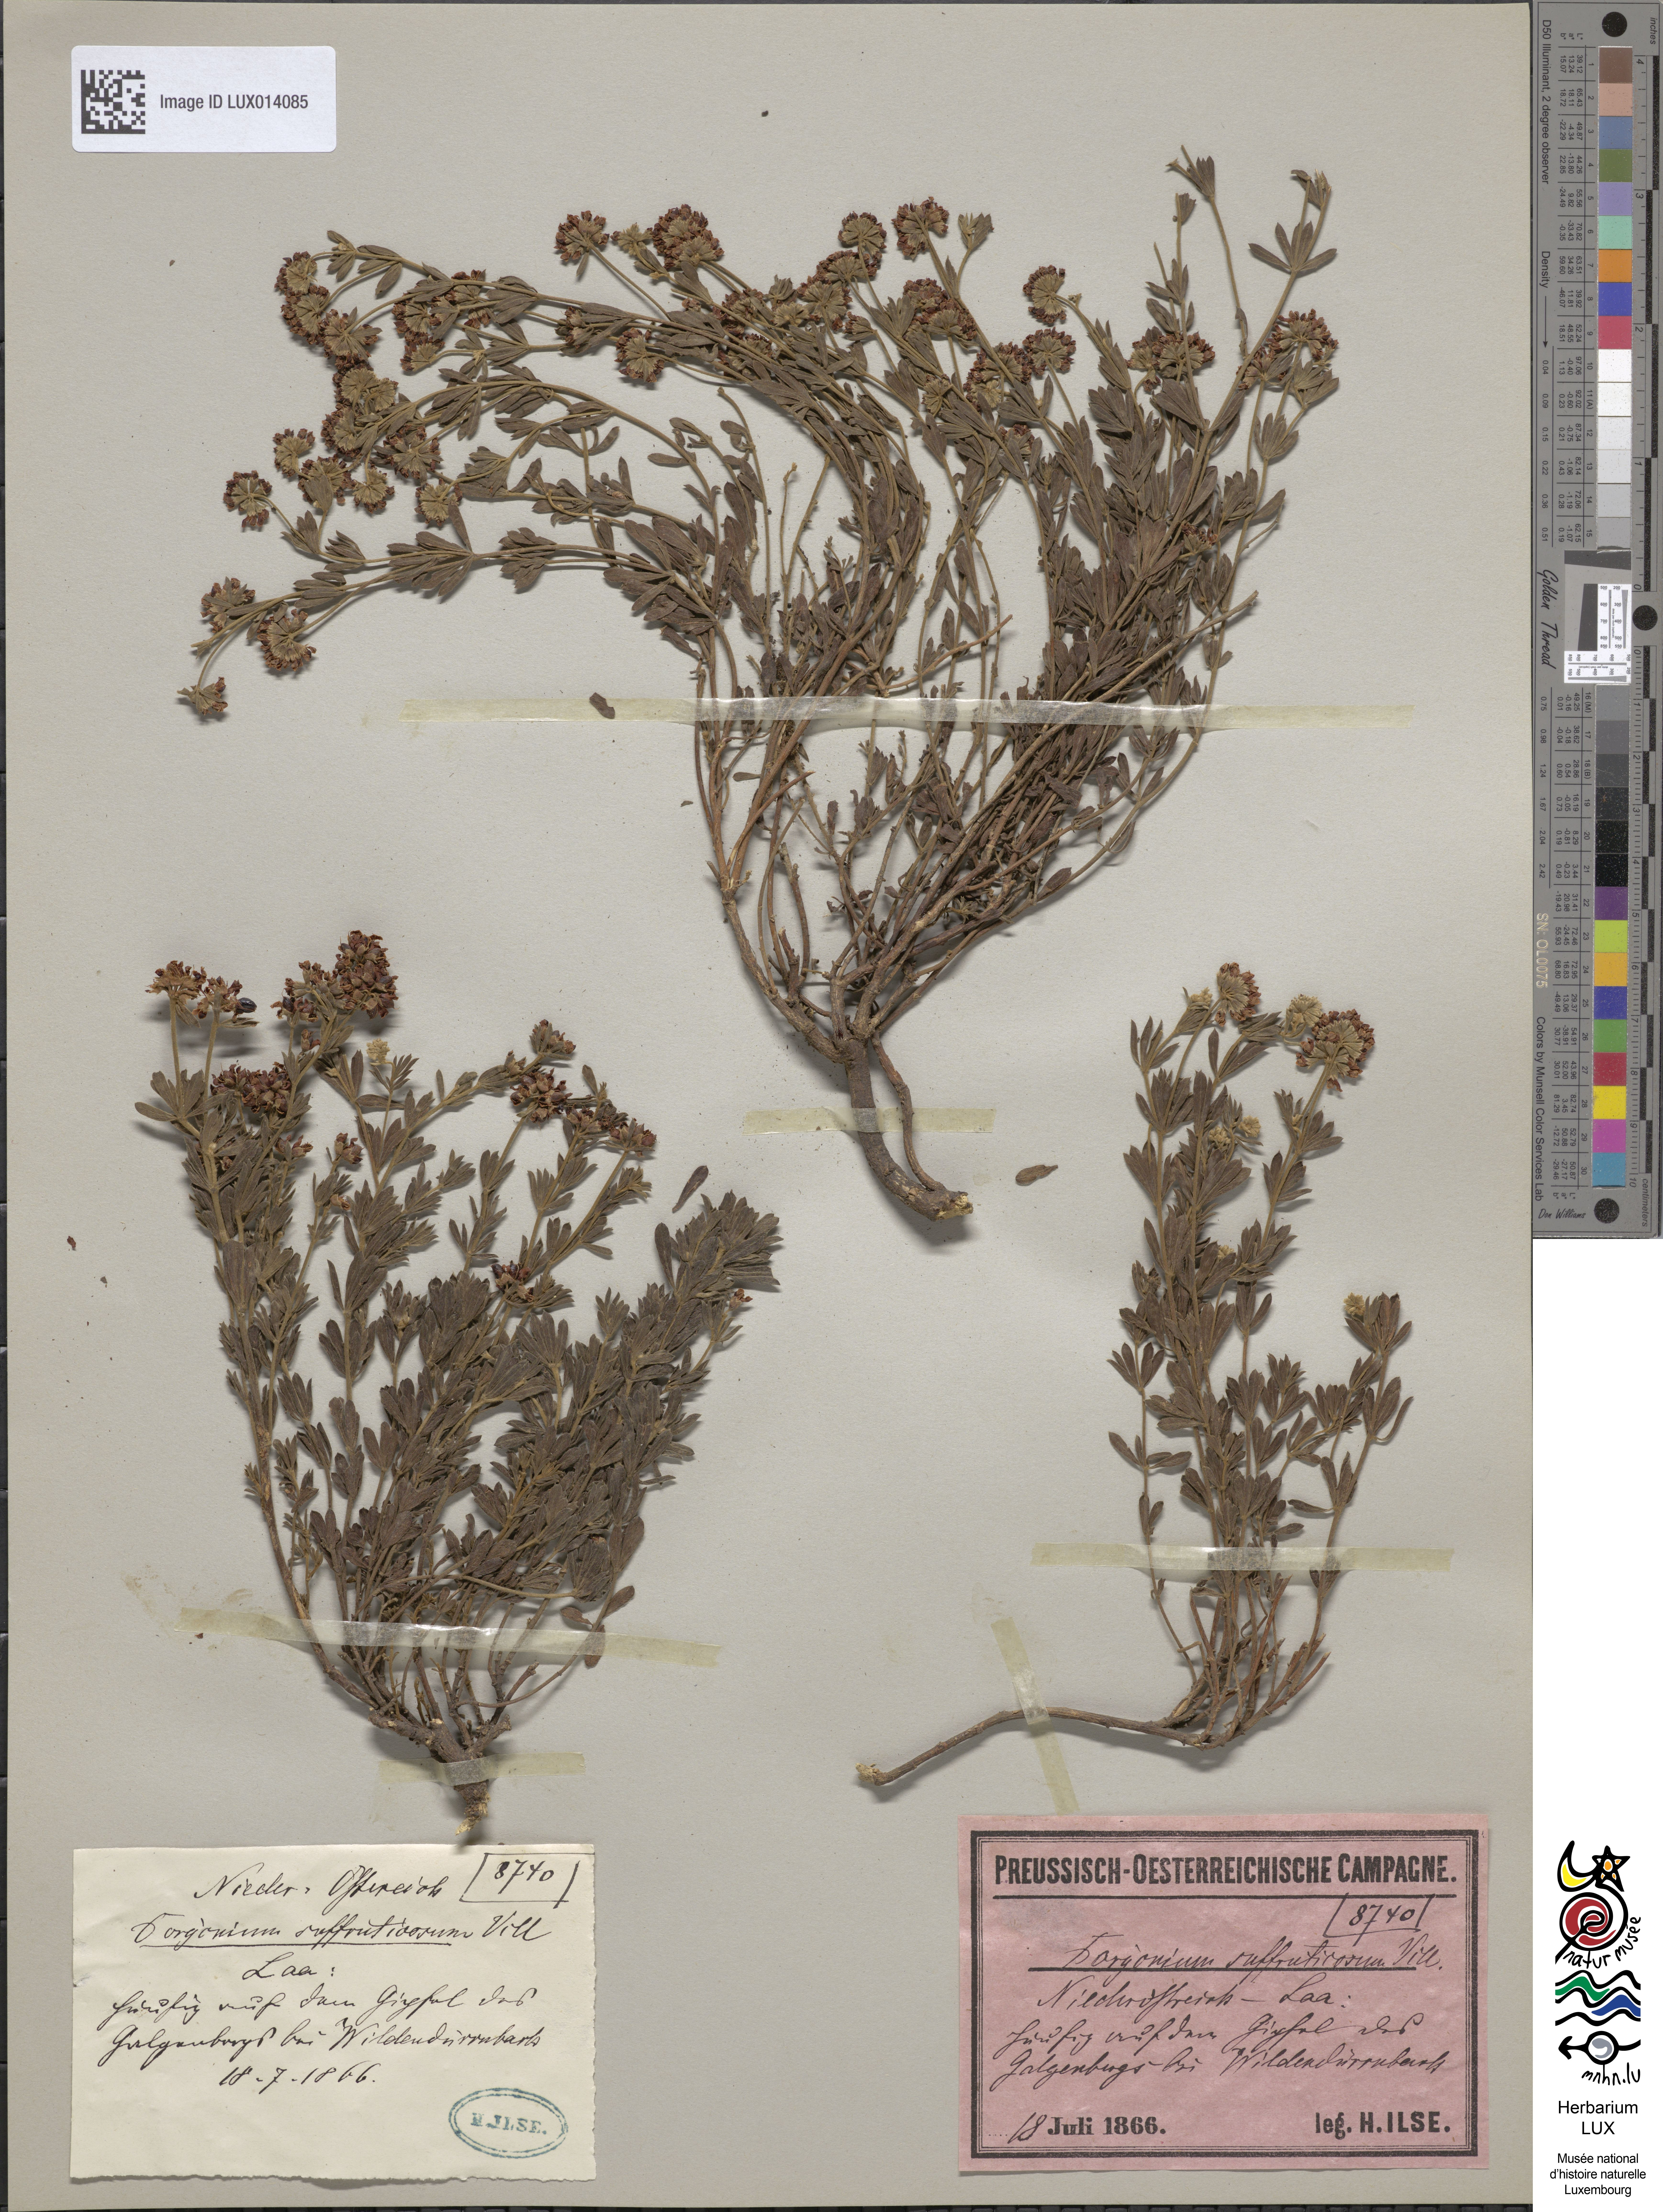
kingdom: Plantae
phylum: Tracheophyta
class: Magnoliopsida
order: Fabales
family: Fabaceae
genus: Lotus
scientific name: Lotus dorycnium
